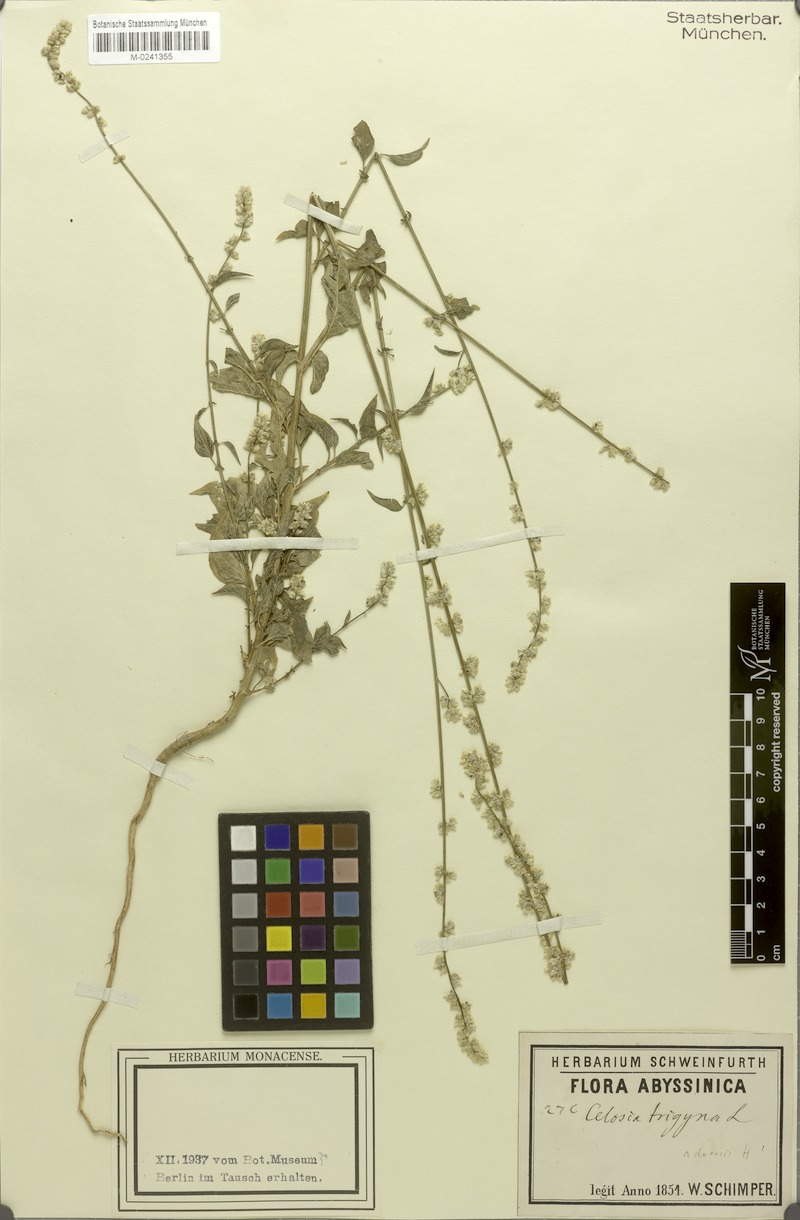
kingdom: Plantae
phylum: Tracheophyta
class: Magnoliopsida
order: Caryophyllales
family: Amaranthaceae
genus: Celosia
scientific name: Celosia trigyna
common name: Woolflower
